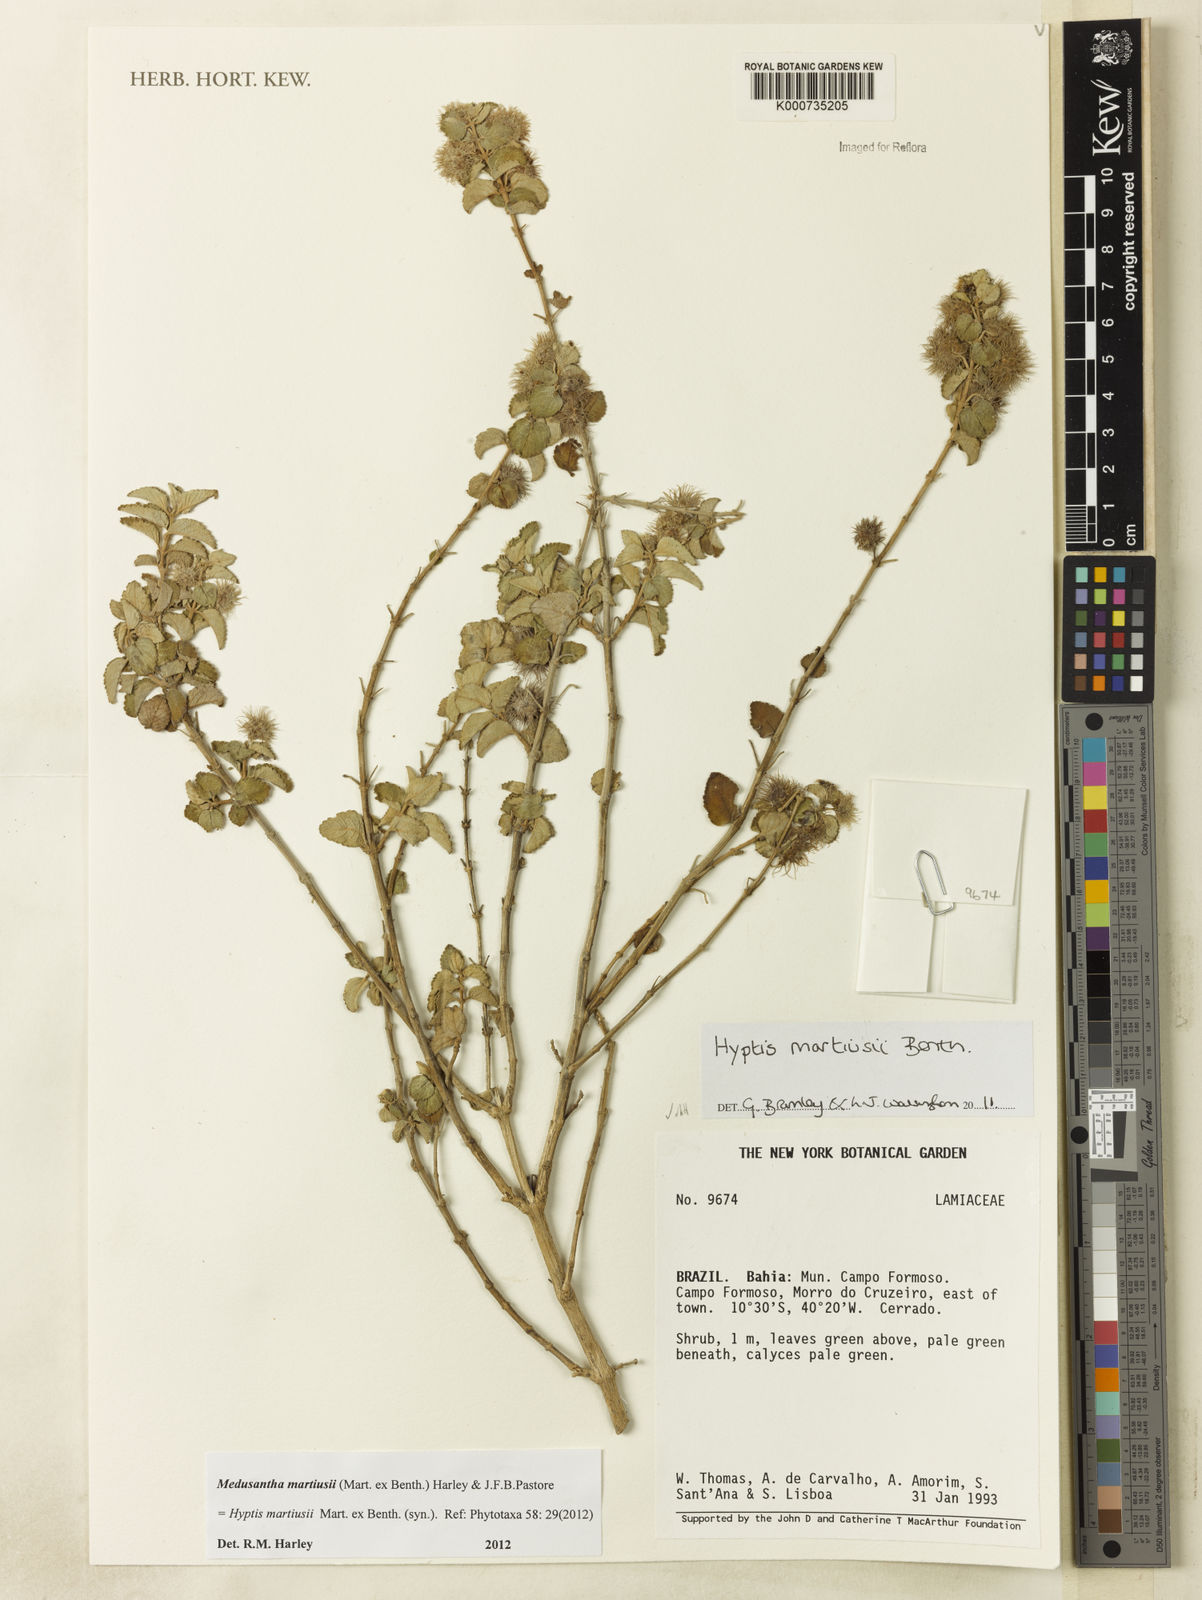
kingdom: Plantae
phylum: Tracheophyta
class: Magnoliopsida
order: Lamiales
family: Lamiaceae
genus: Medusantha
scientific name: Medusantha martiusii
